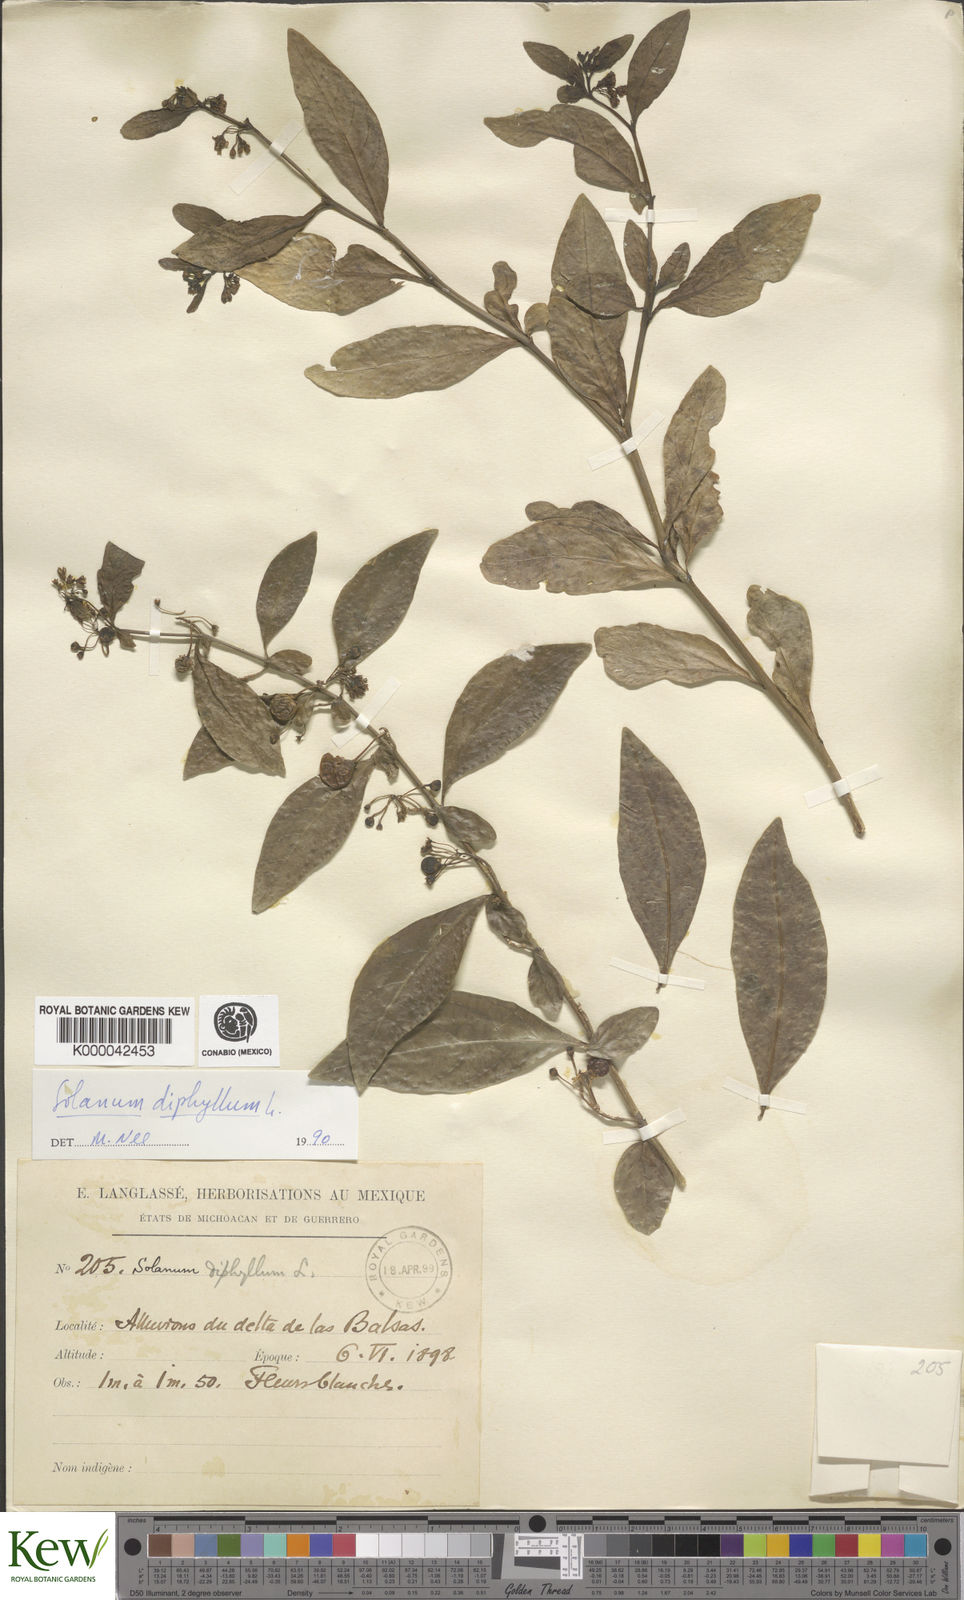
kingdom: Plantae
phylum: Tracheophyta
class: Magnoliopsida
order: Solanales
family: Solanaceae
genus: Solanum
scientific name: Solanum
